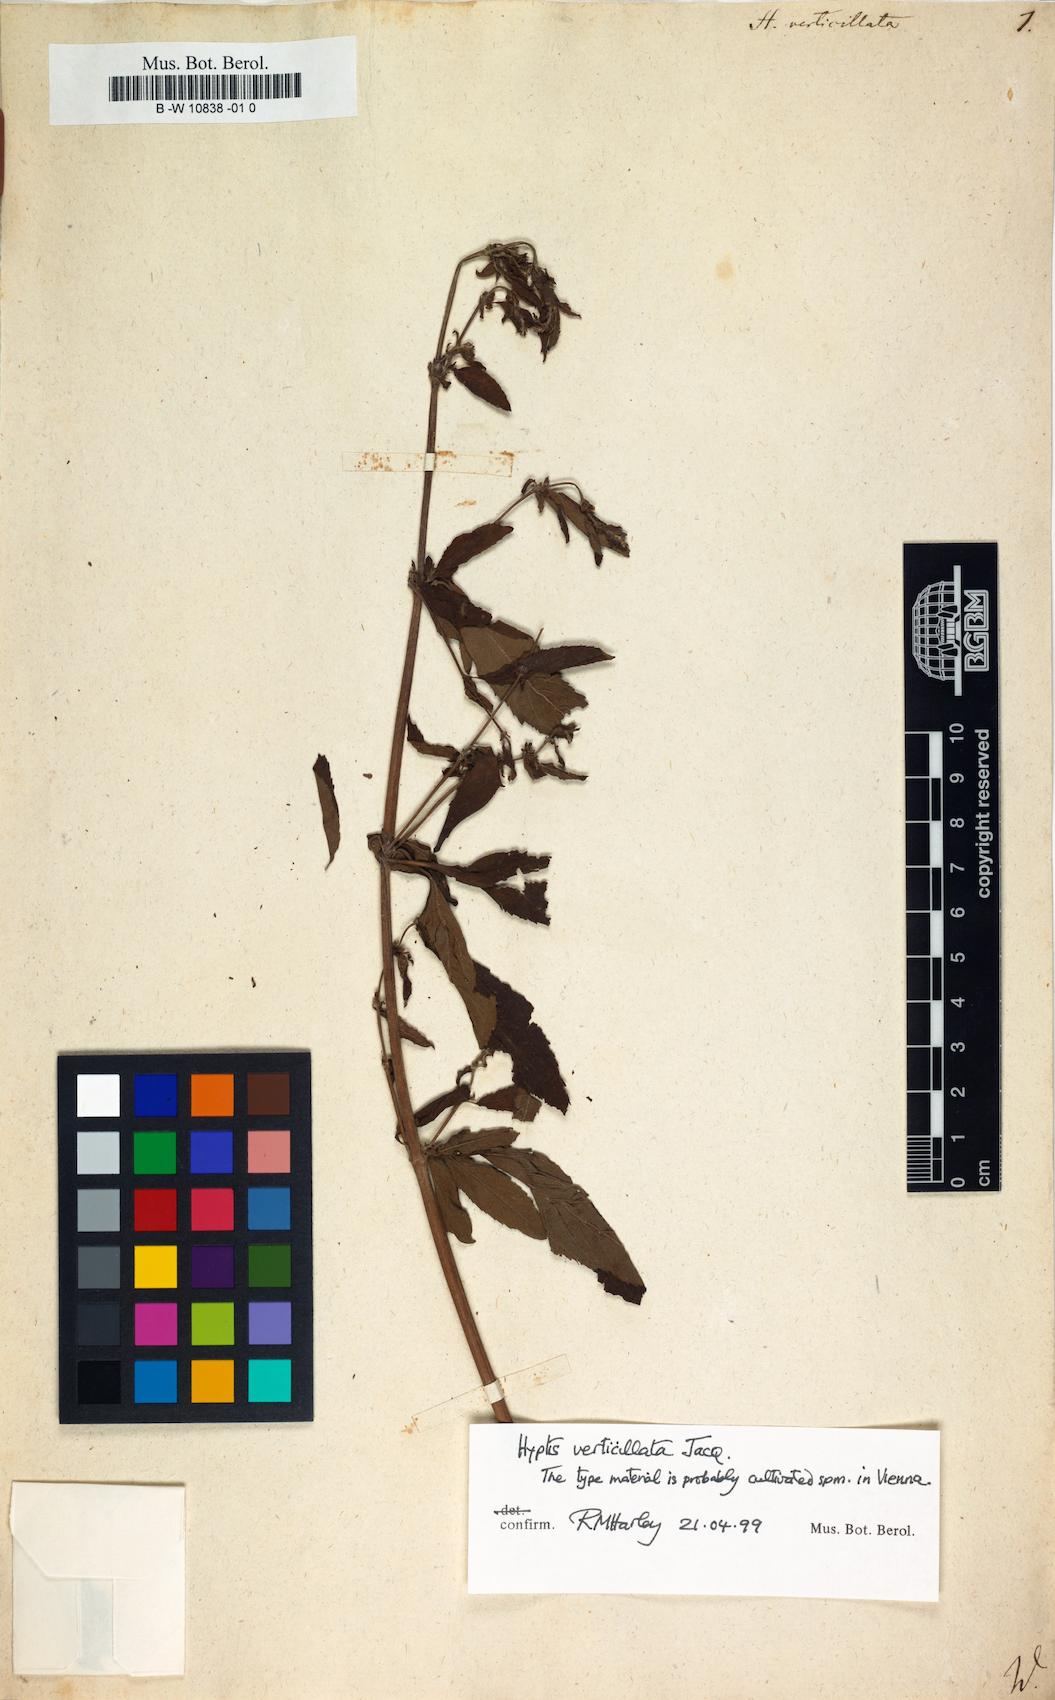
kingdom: Plantae
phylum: Tracheophyta
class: Magnoliopsida
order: Lamiales
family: Lamiaceae
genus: Condea
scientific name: Condea verticillata
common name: John charles
